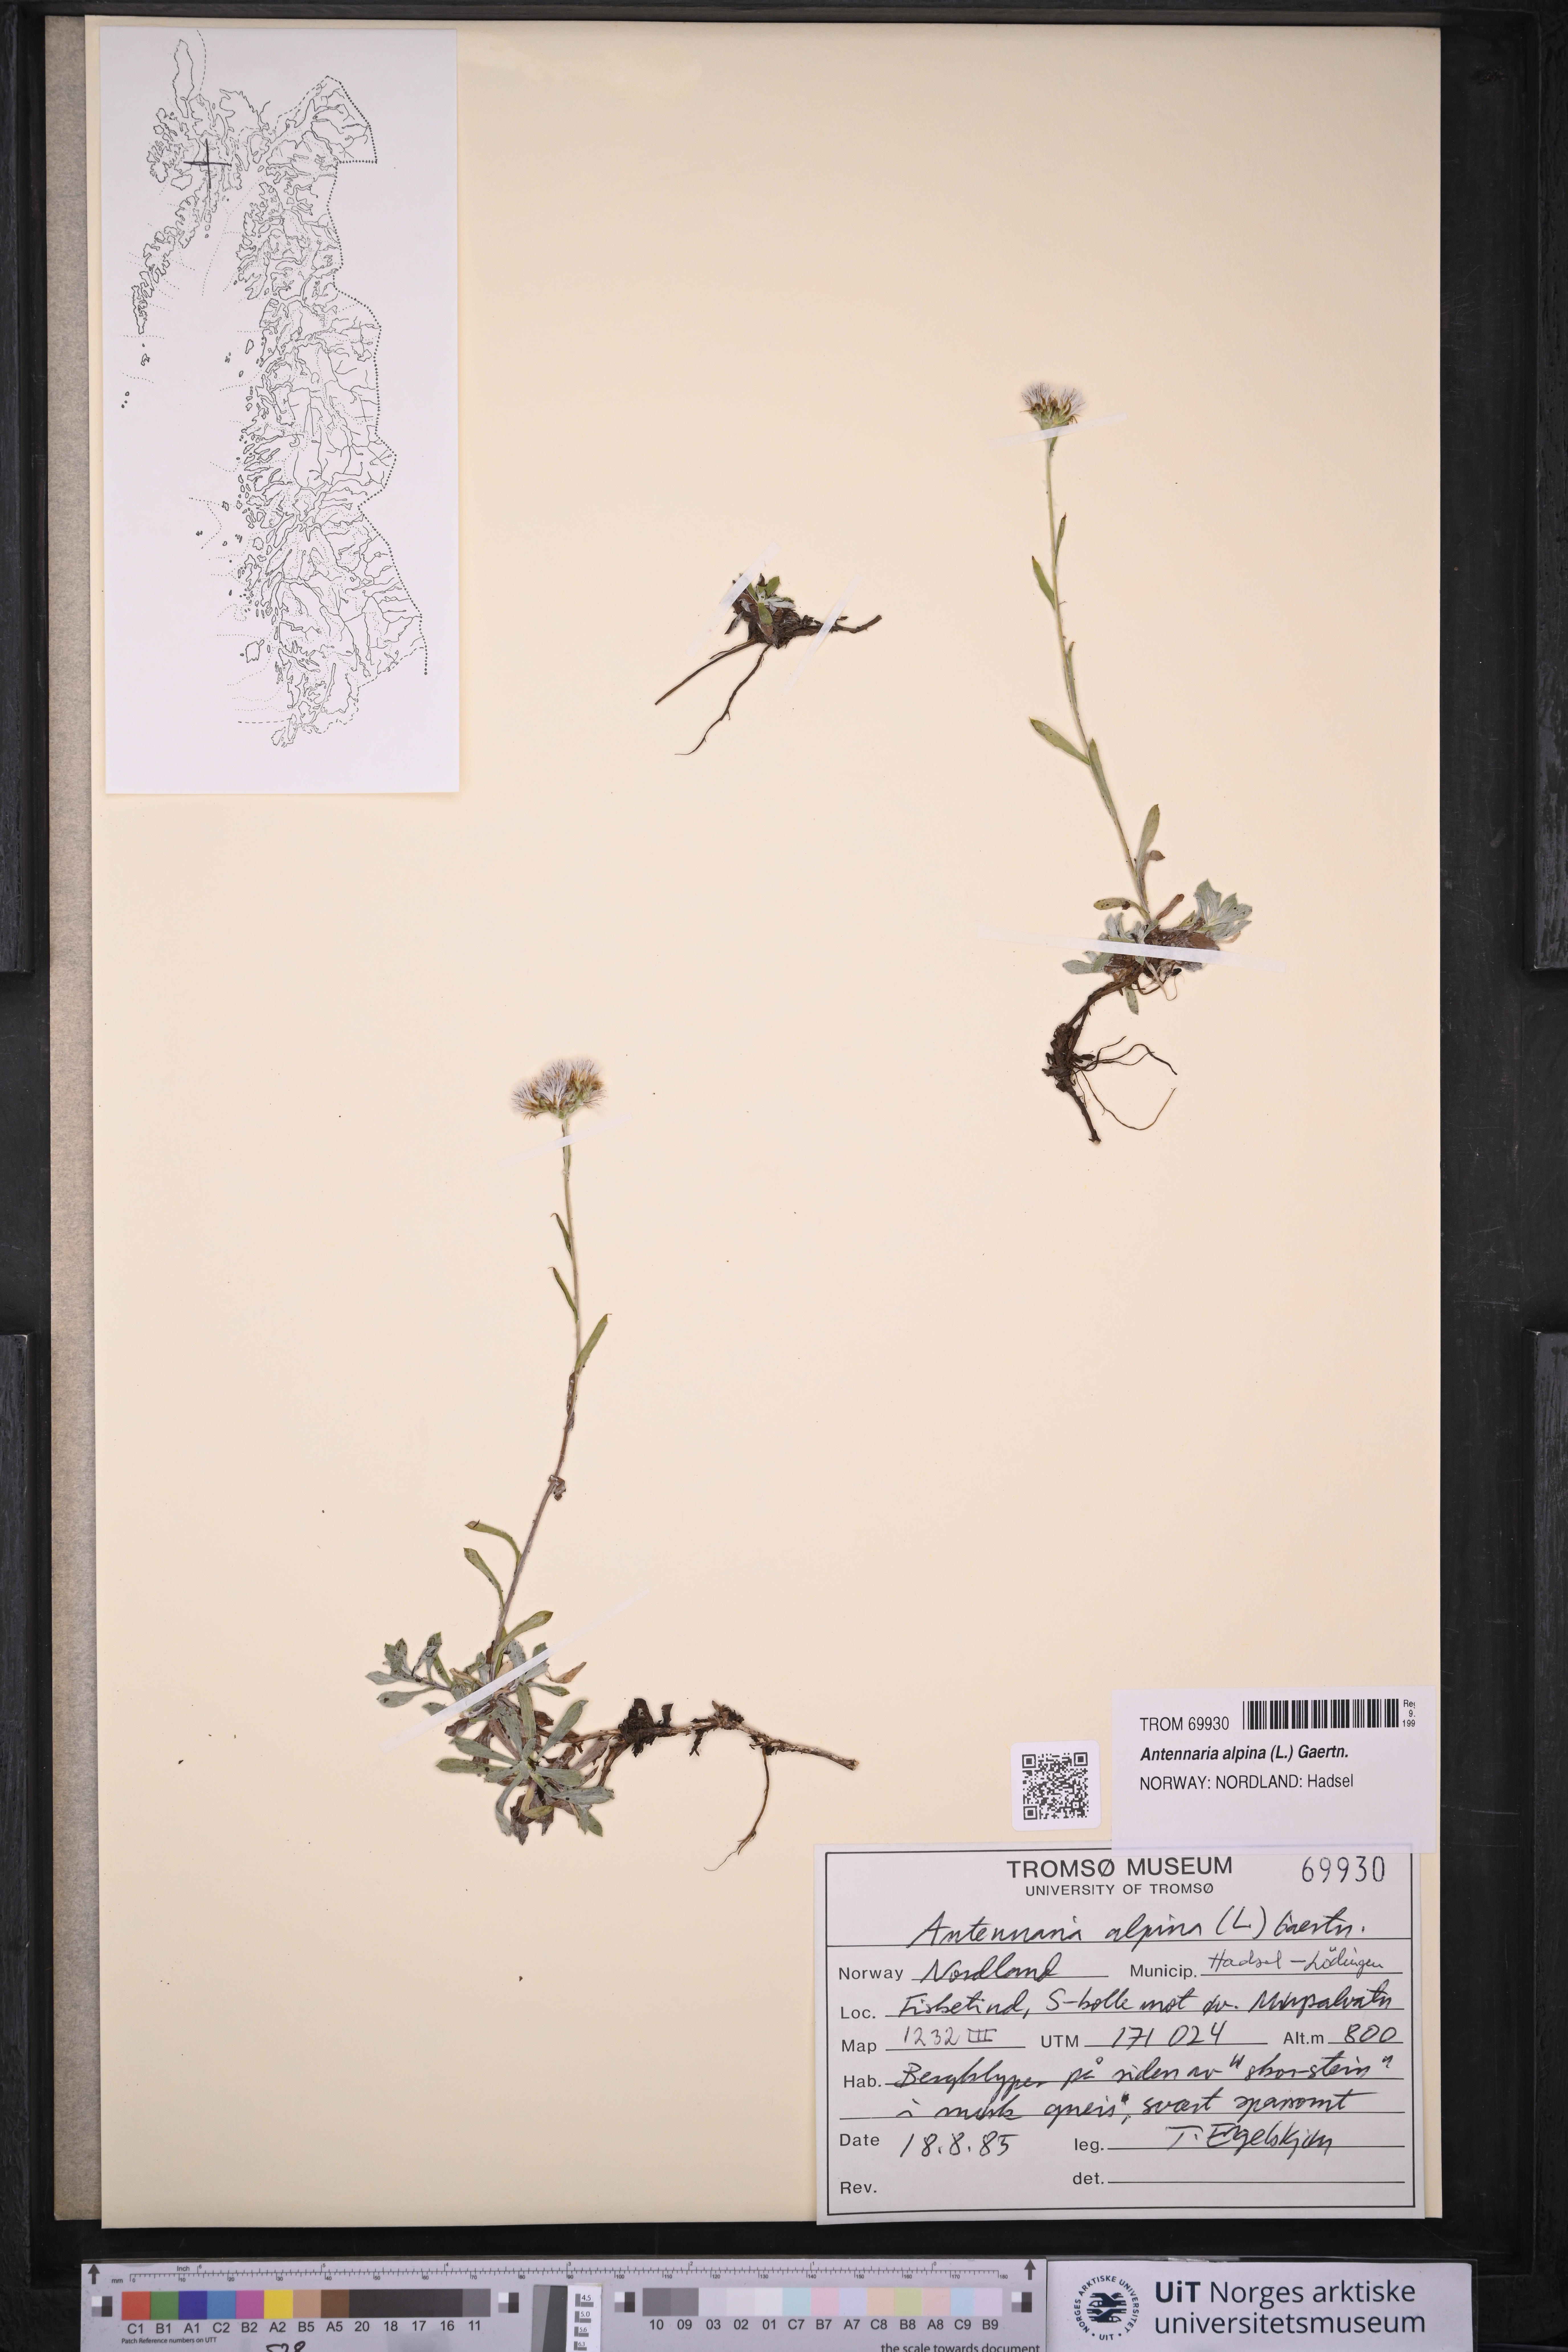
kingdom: Plantae
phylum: Tracheophyta
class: Magnoliopsida
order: Asterales
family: Asteraceae
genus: Antennaria
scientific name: Antennaria alpina
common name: Alpine pussytoes
